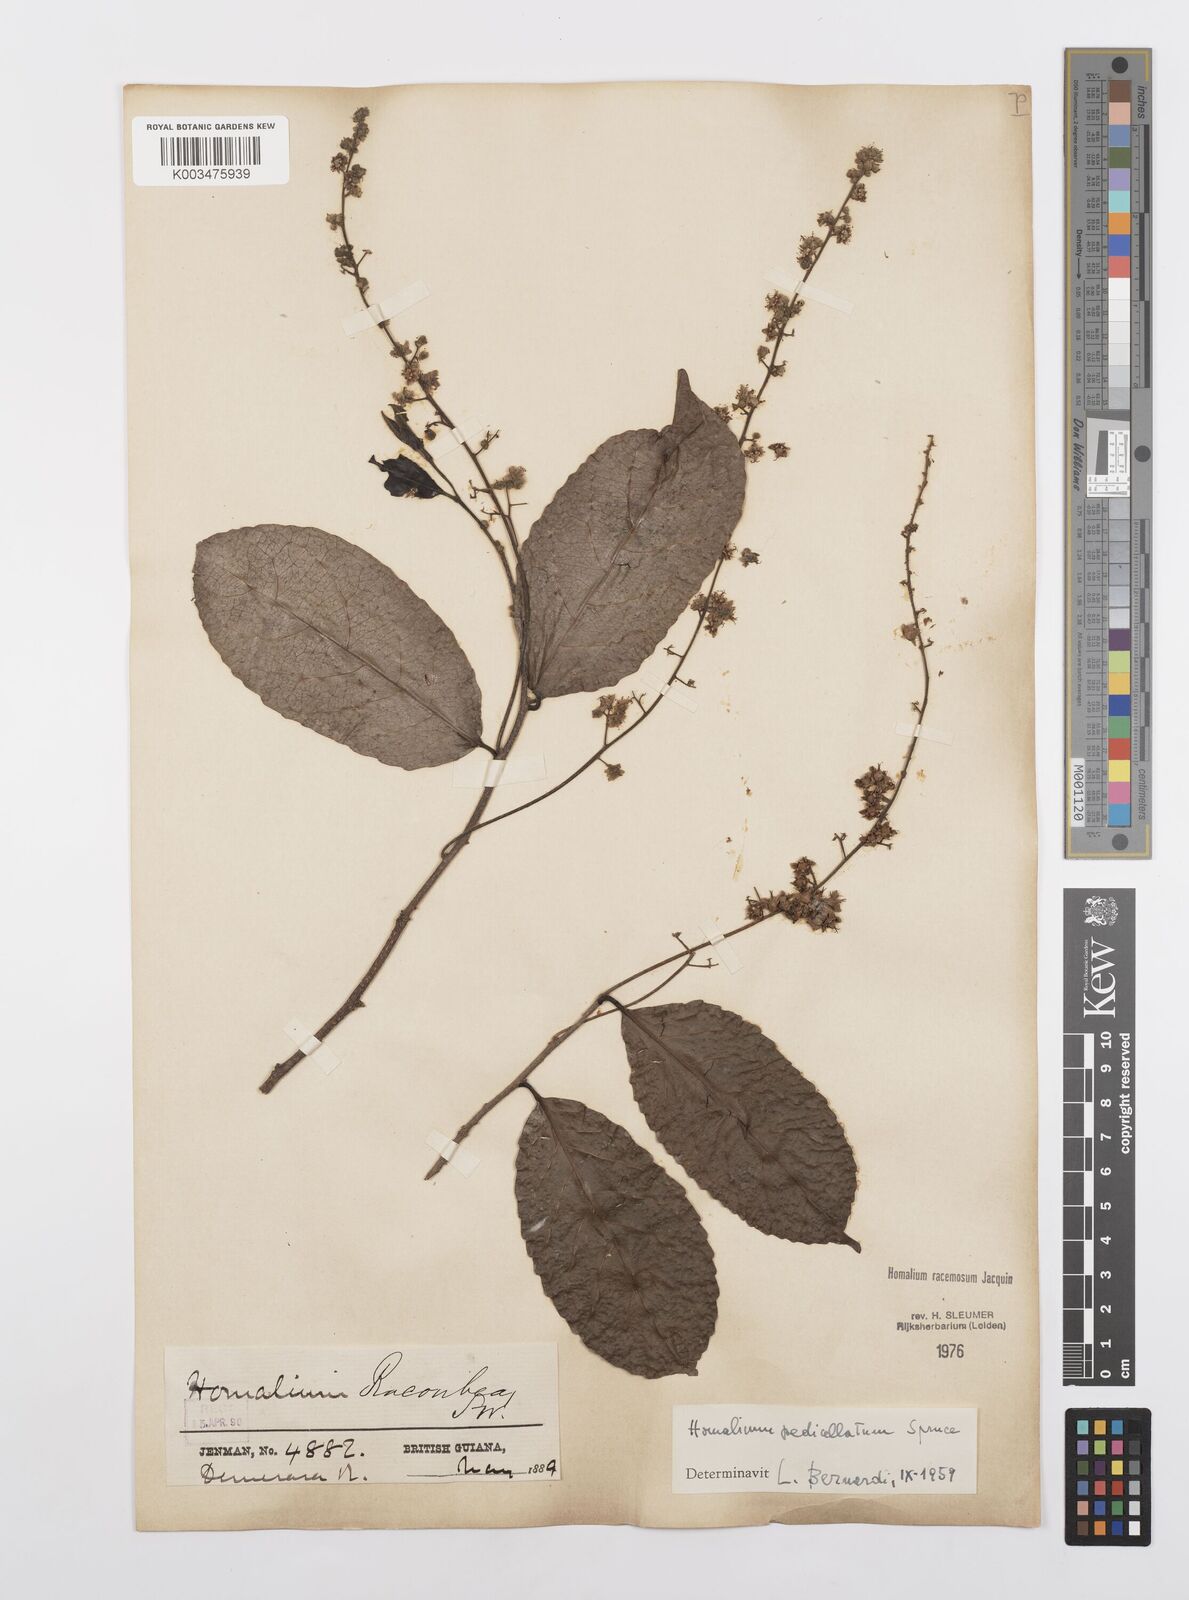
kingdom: Plantae
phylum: Tracheophyta
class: Magnoliopsida
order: Malpighiales
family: Salicaceae
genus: Homalium
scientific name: Homalium racemosum
